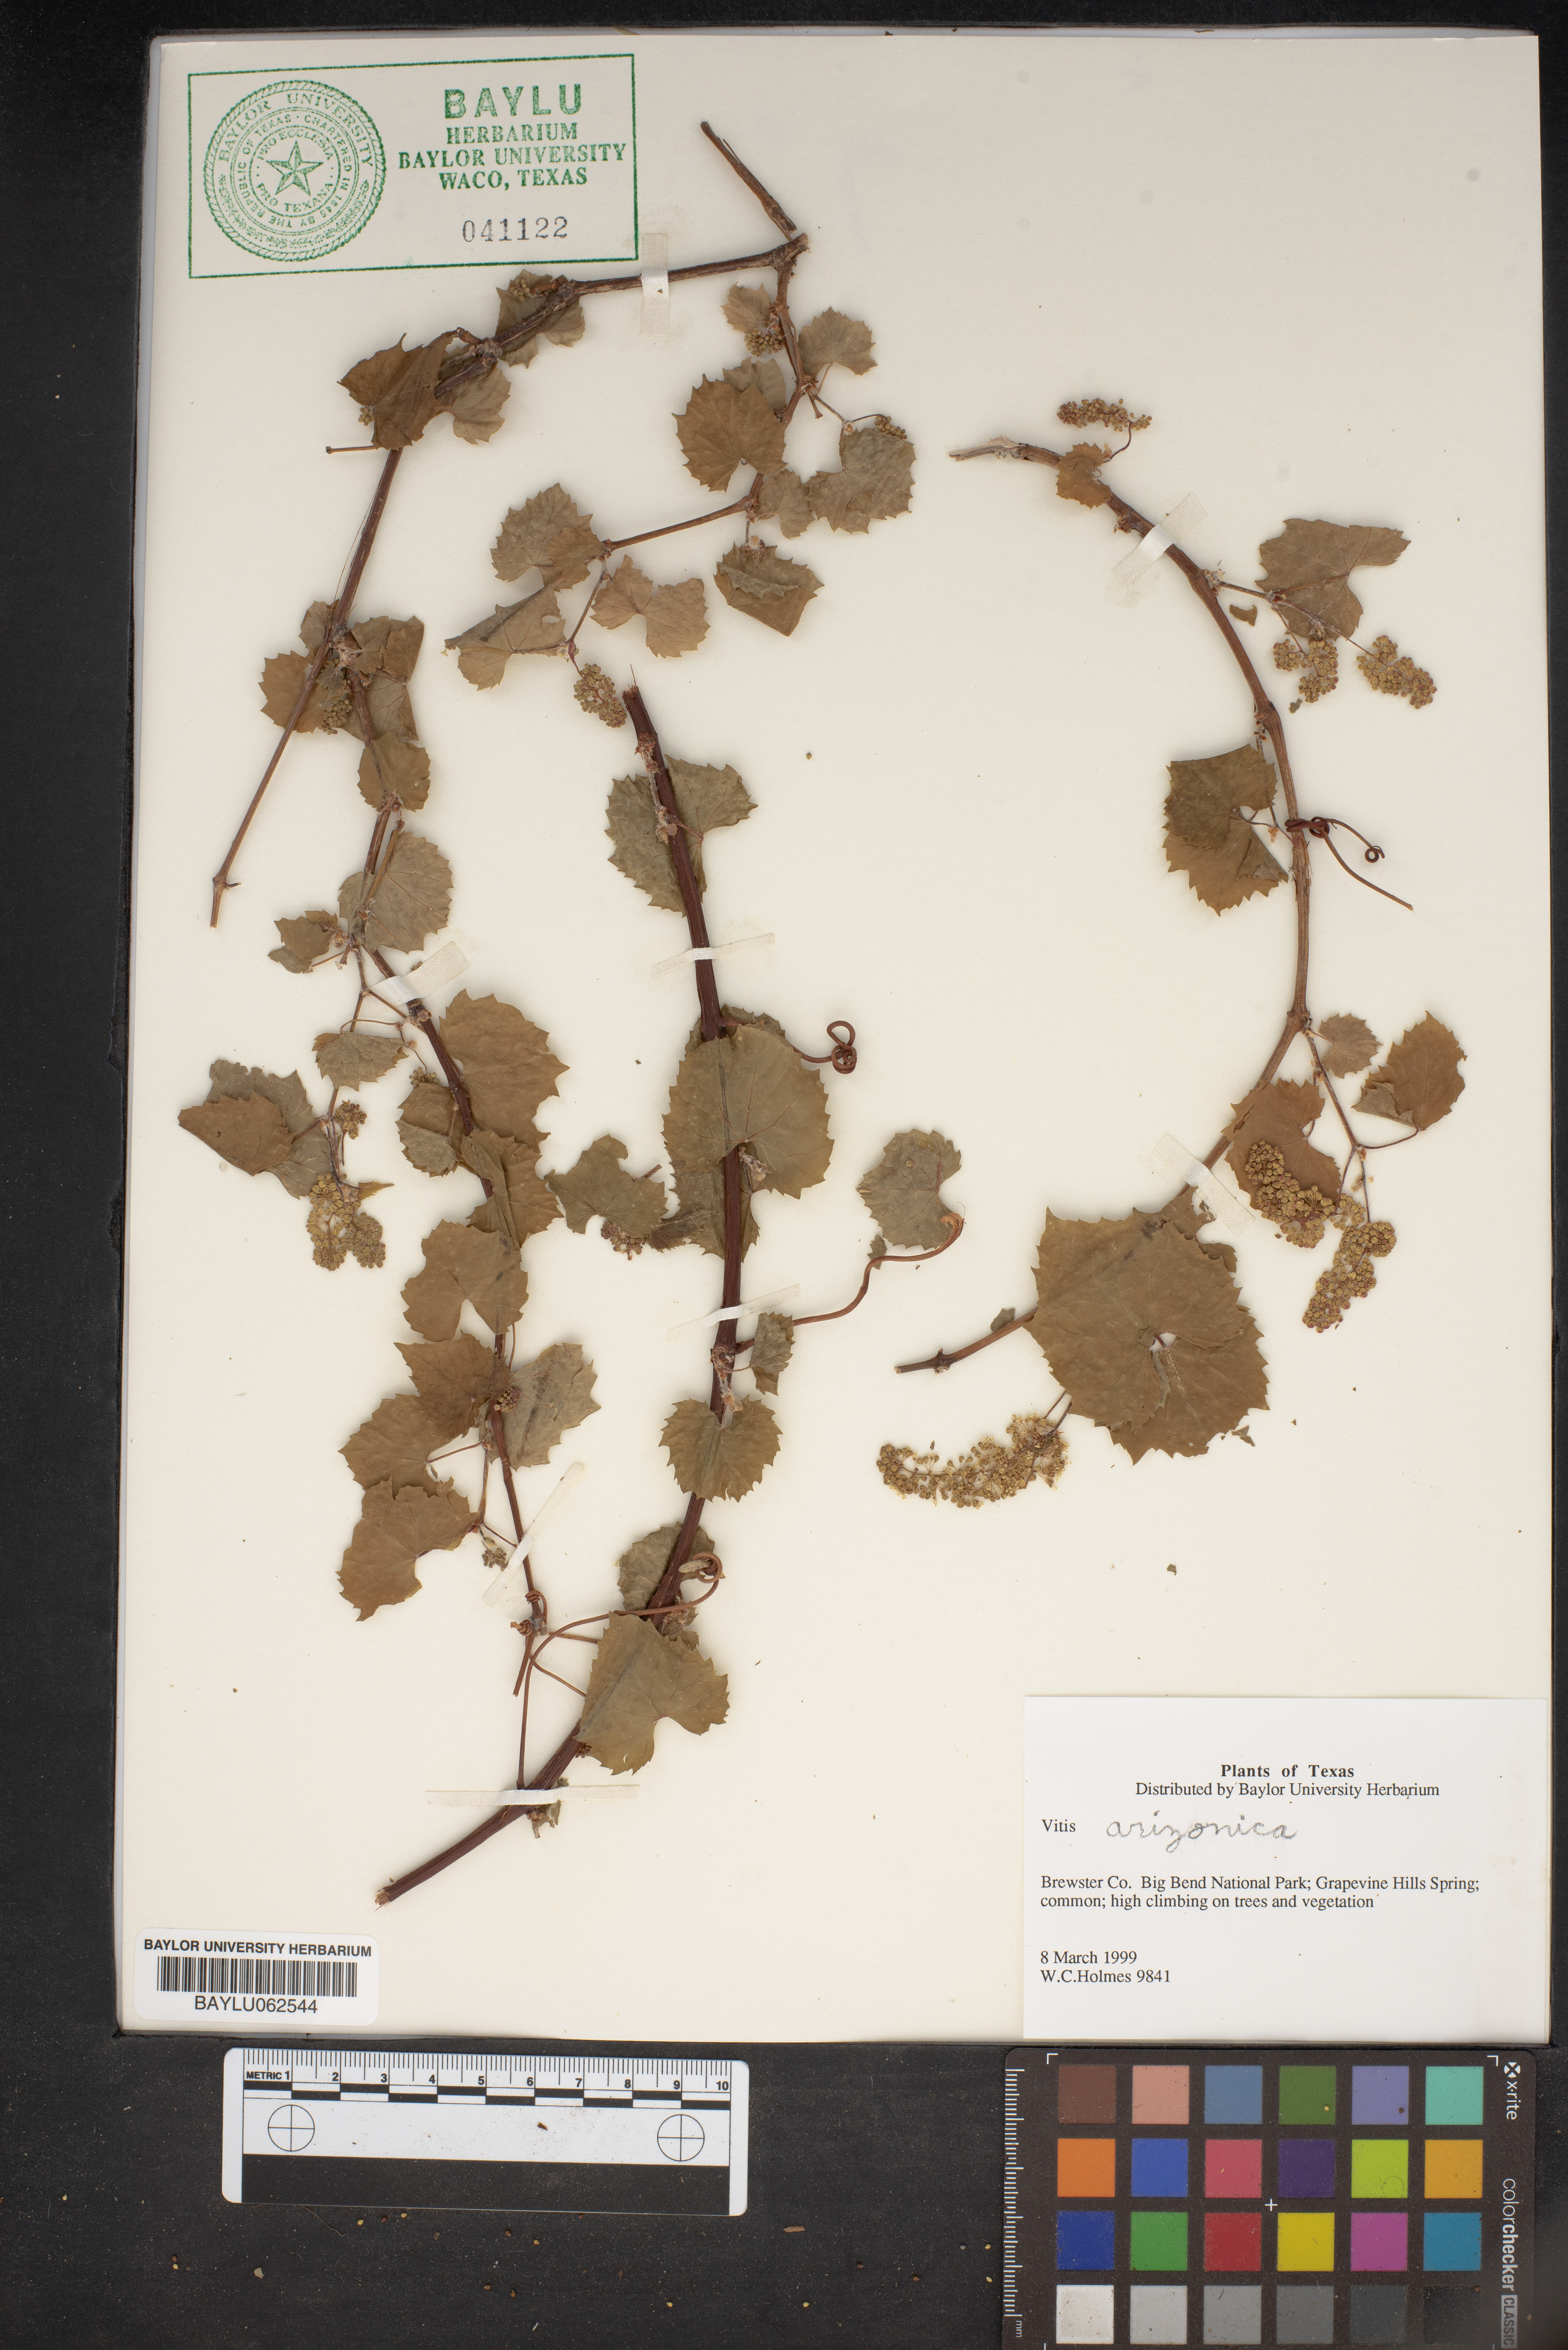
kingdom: Plantae
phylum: Tracheophyta
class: Magnoliopsida
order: Vitales
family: Vitaceae
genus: Vitis
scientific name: Vitis arizonica
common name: Canyon grape
